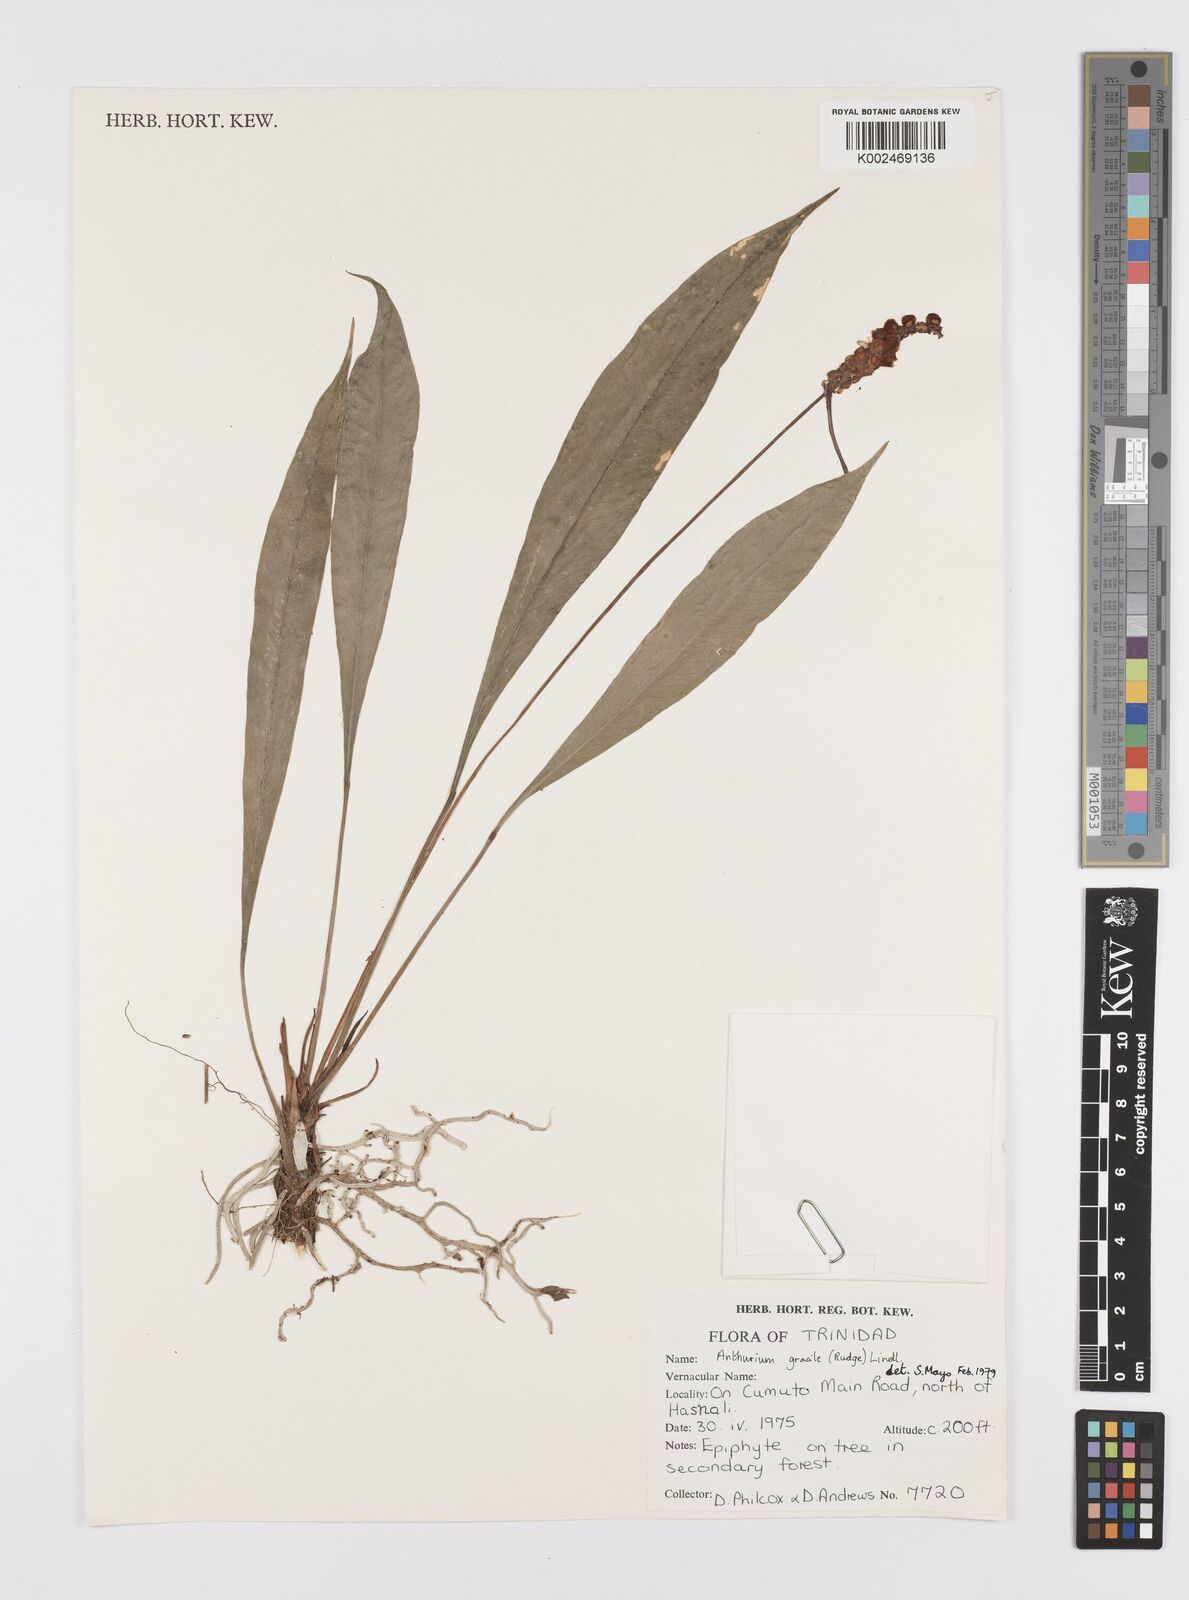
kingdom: Plantae
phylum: Tracheophyta
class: Liliopsida
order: Alismatales
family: Araceae
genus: Anthurium
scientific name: Anthurium gracile
